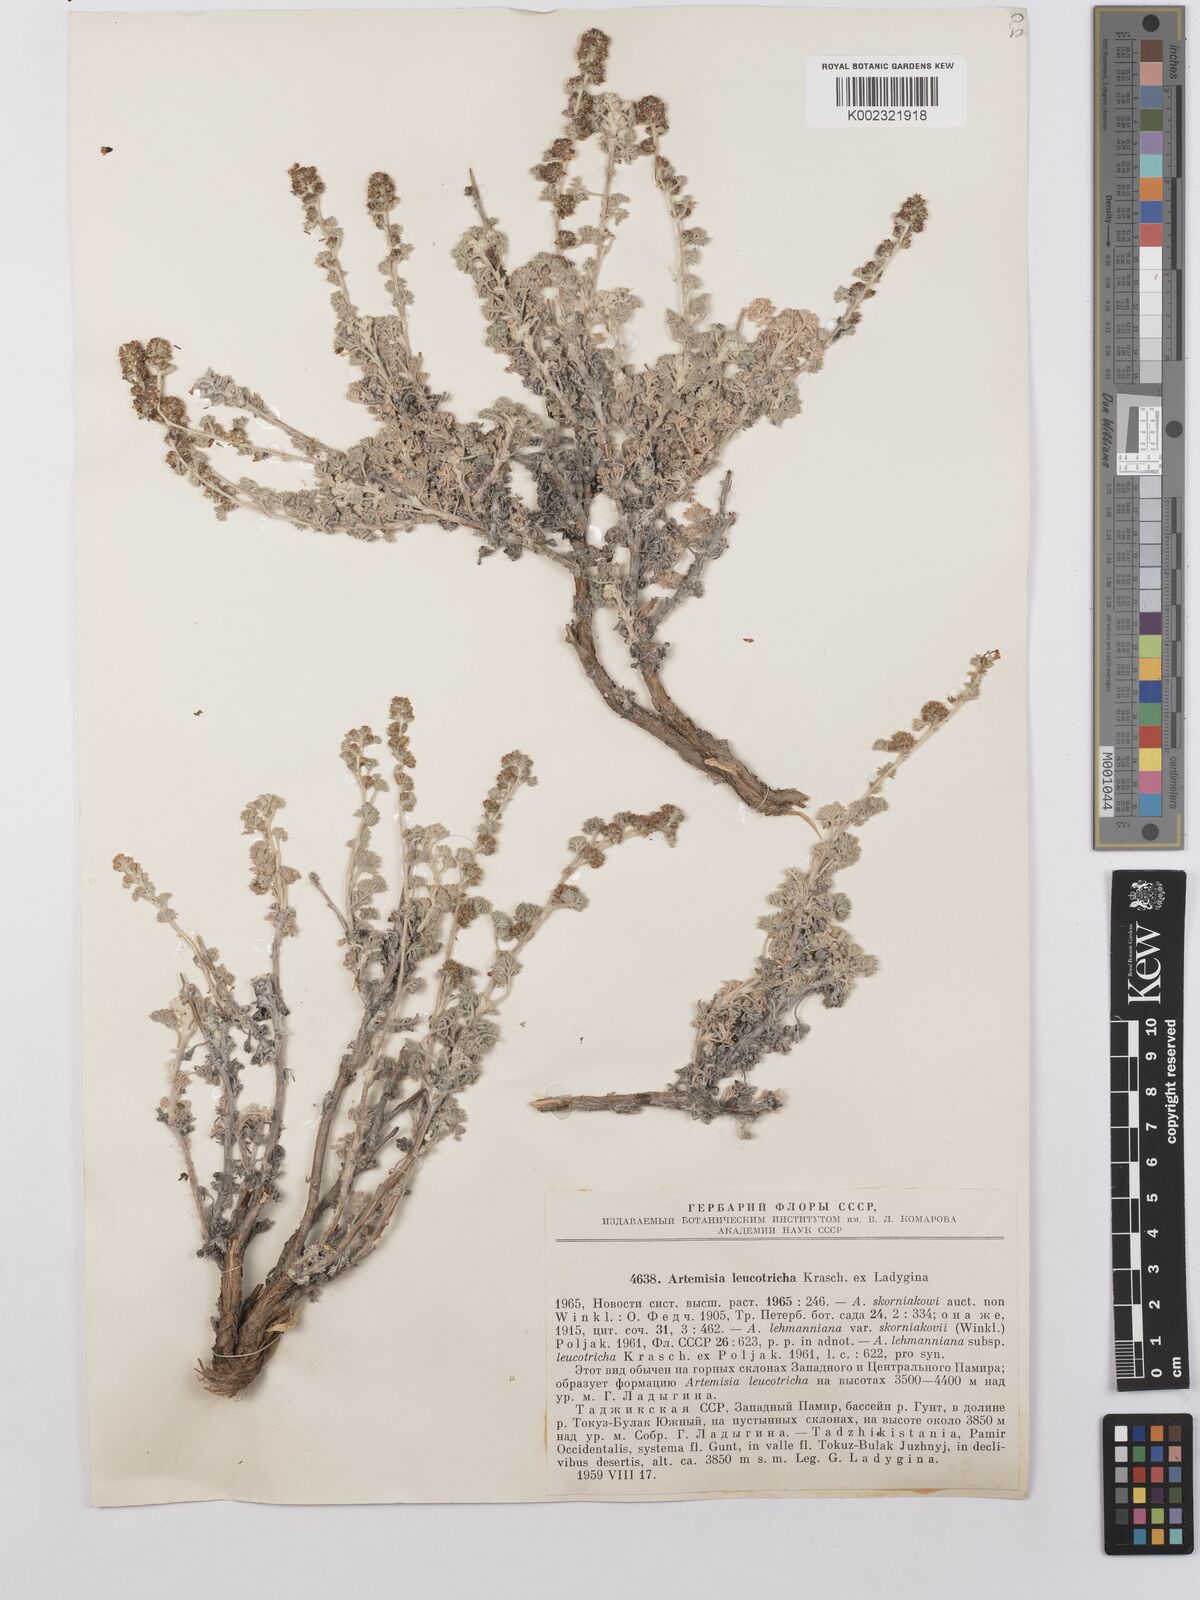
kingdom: Plantae
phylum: Tracheophyta
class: Magnoliopsida
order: Asterales
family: Asteraceae
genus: Artemisia
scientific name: Artemisia skorniakovii
